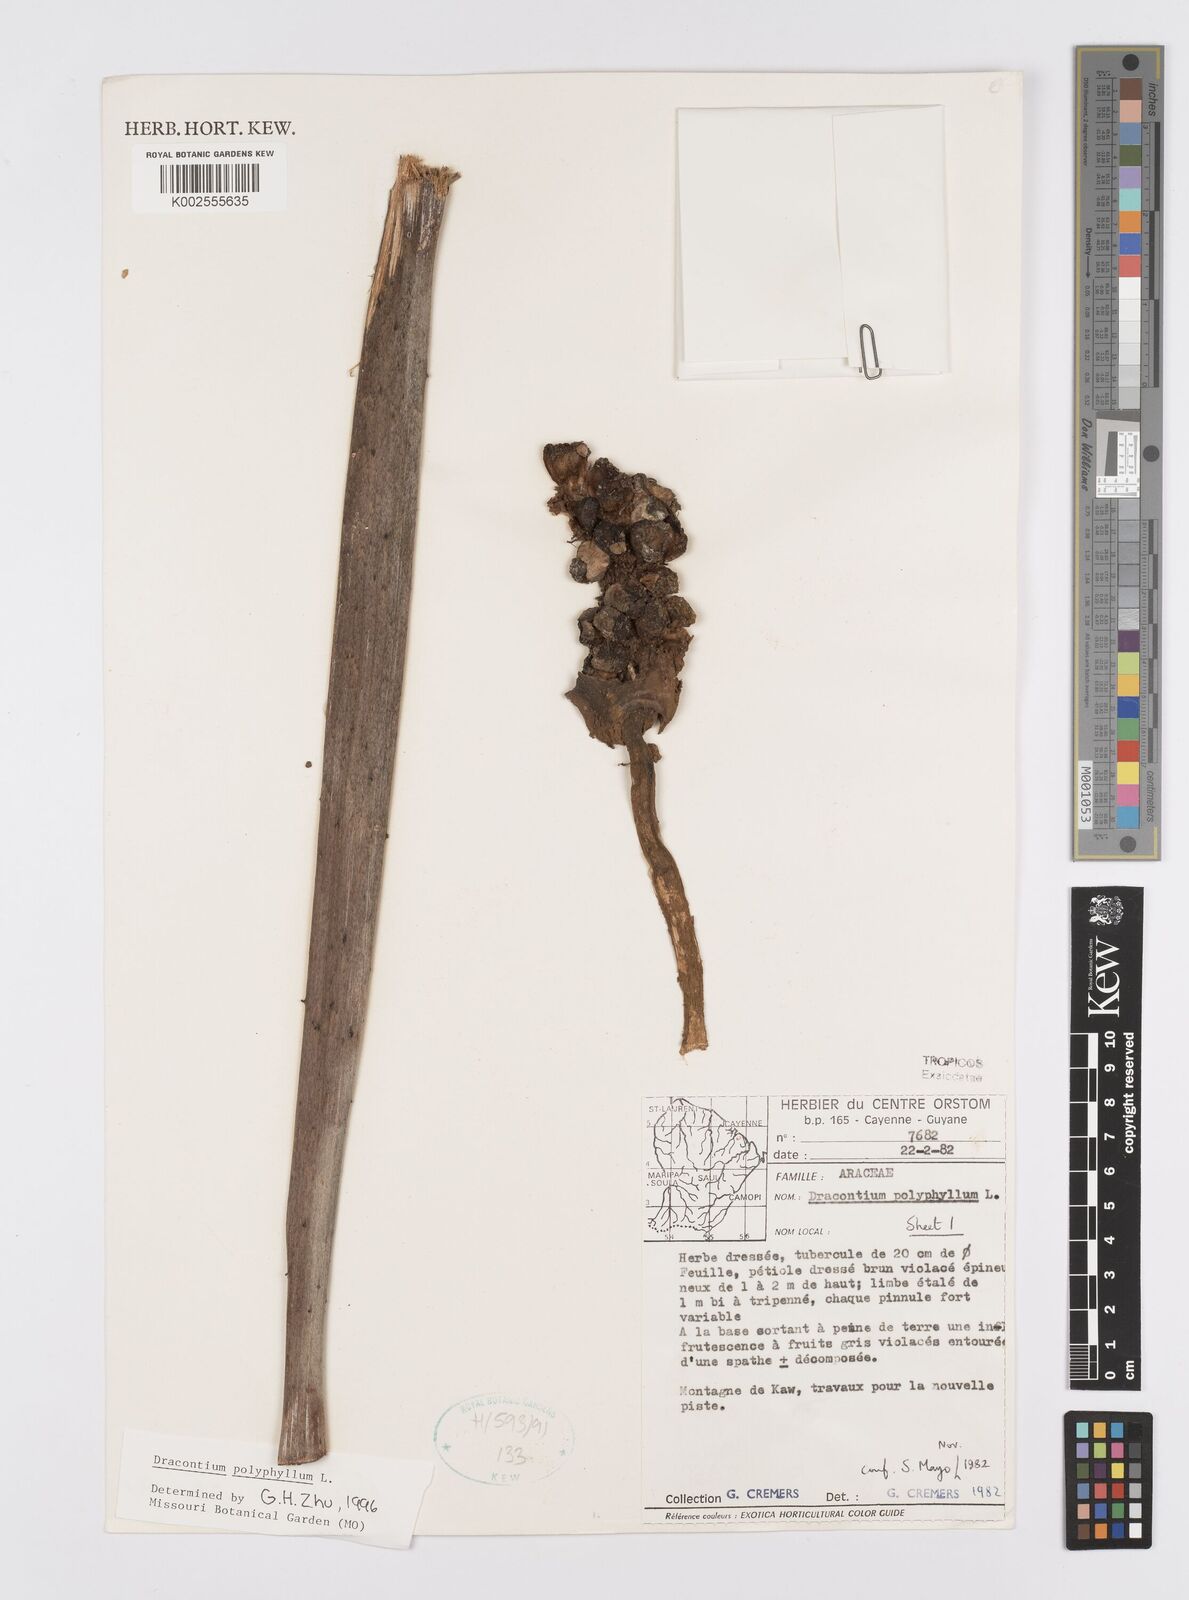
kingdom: Plantae
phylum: Tracheophyta
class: Liliopsida
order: Alismatales
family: Araceae
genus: Dracontium
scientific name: Dracontium polyphyllum
